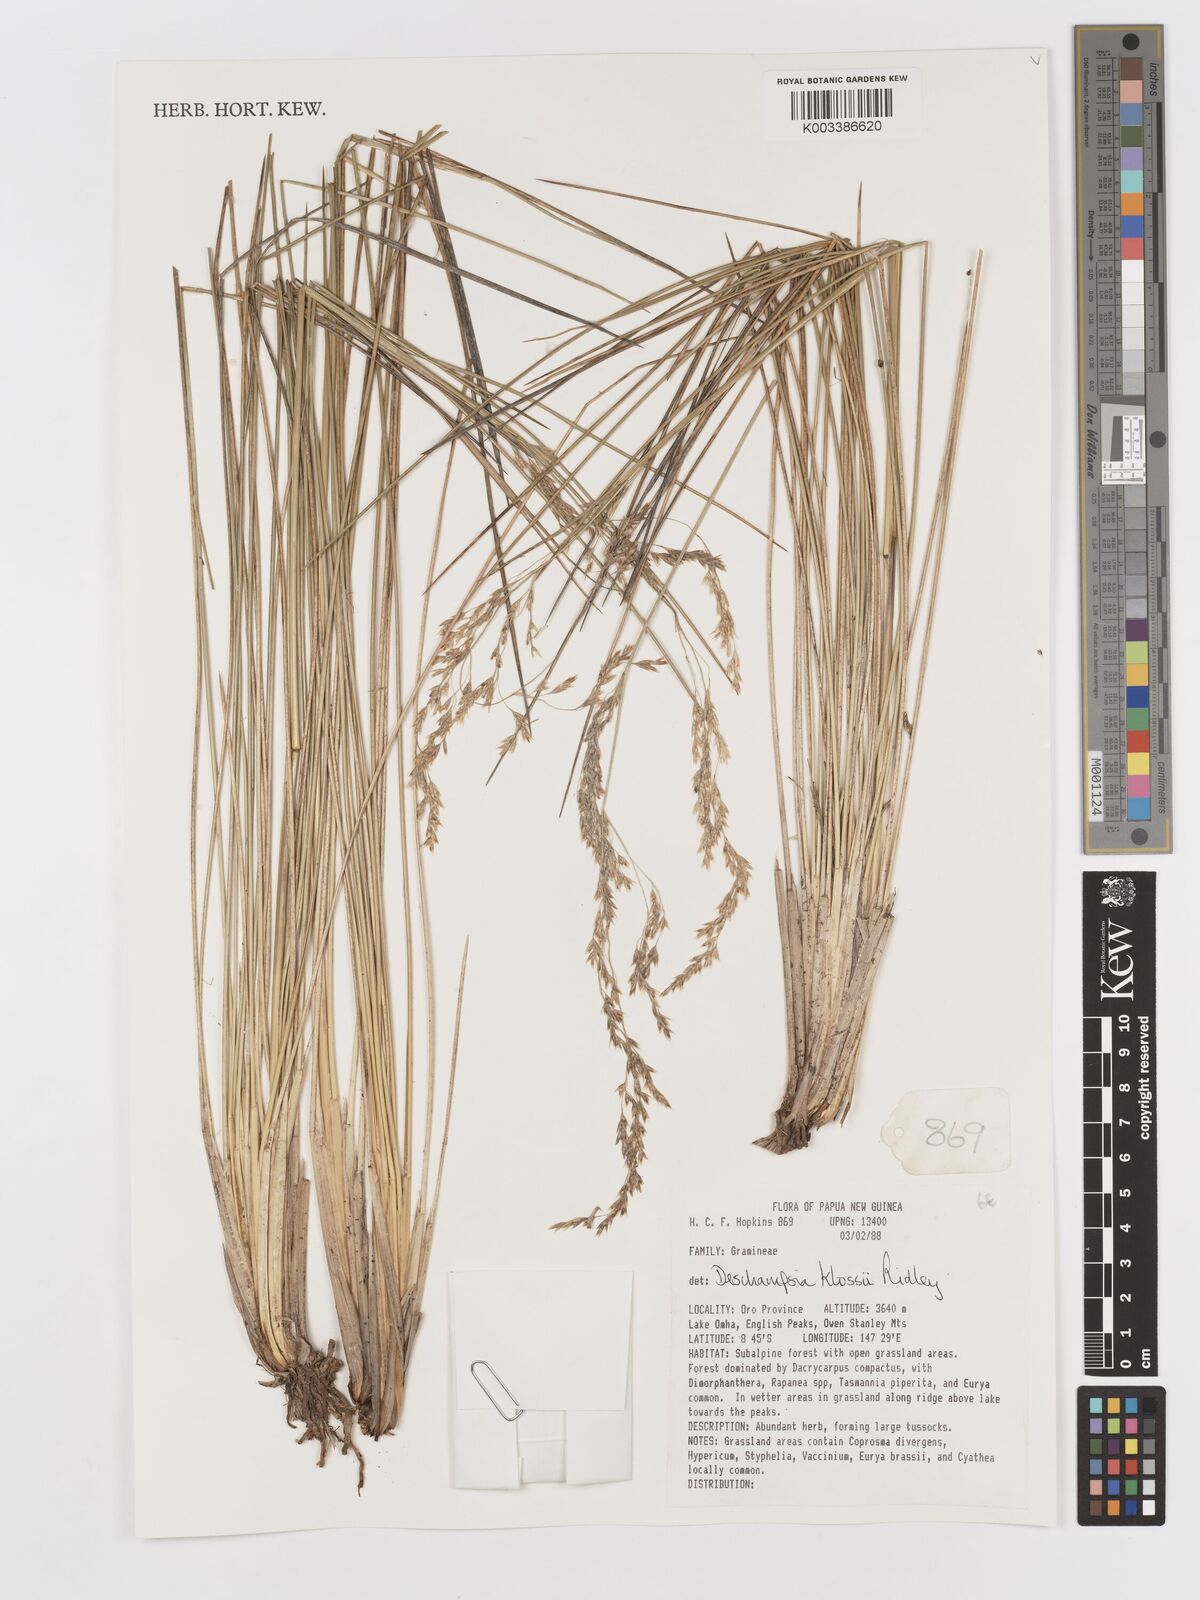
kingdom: Plantae
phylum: Tracheophyta
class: Liliopsida
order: Poales
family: Poaceae
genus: Deschampsia
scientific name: Deschampsia klossii
